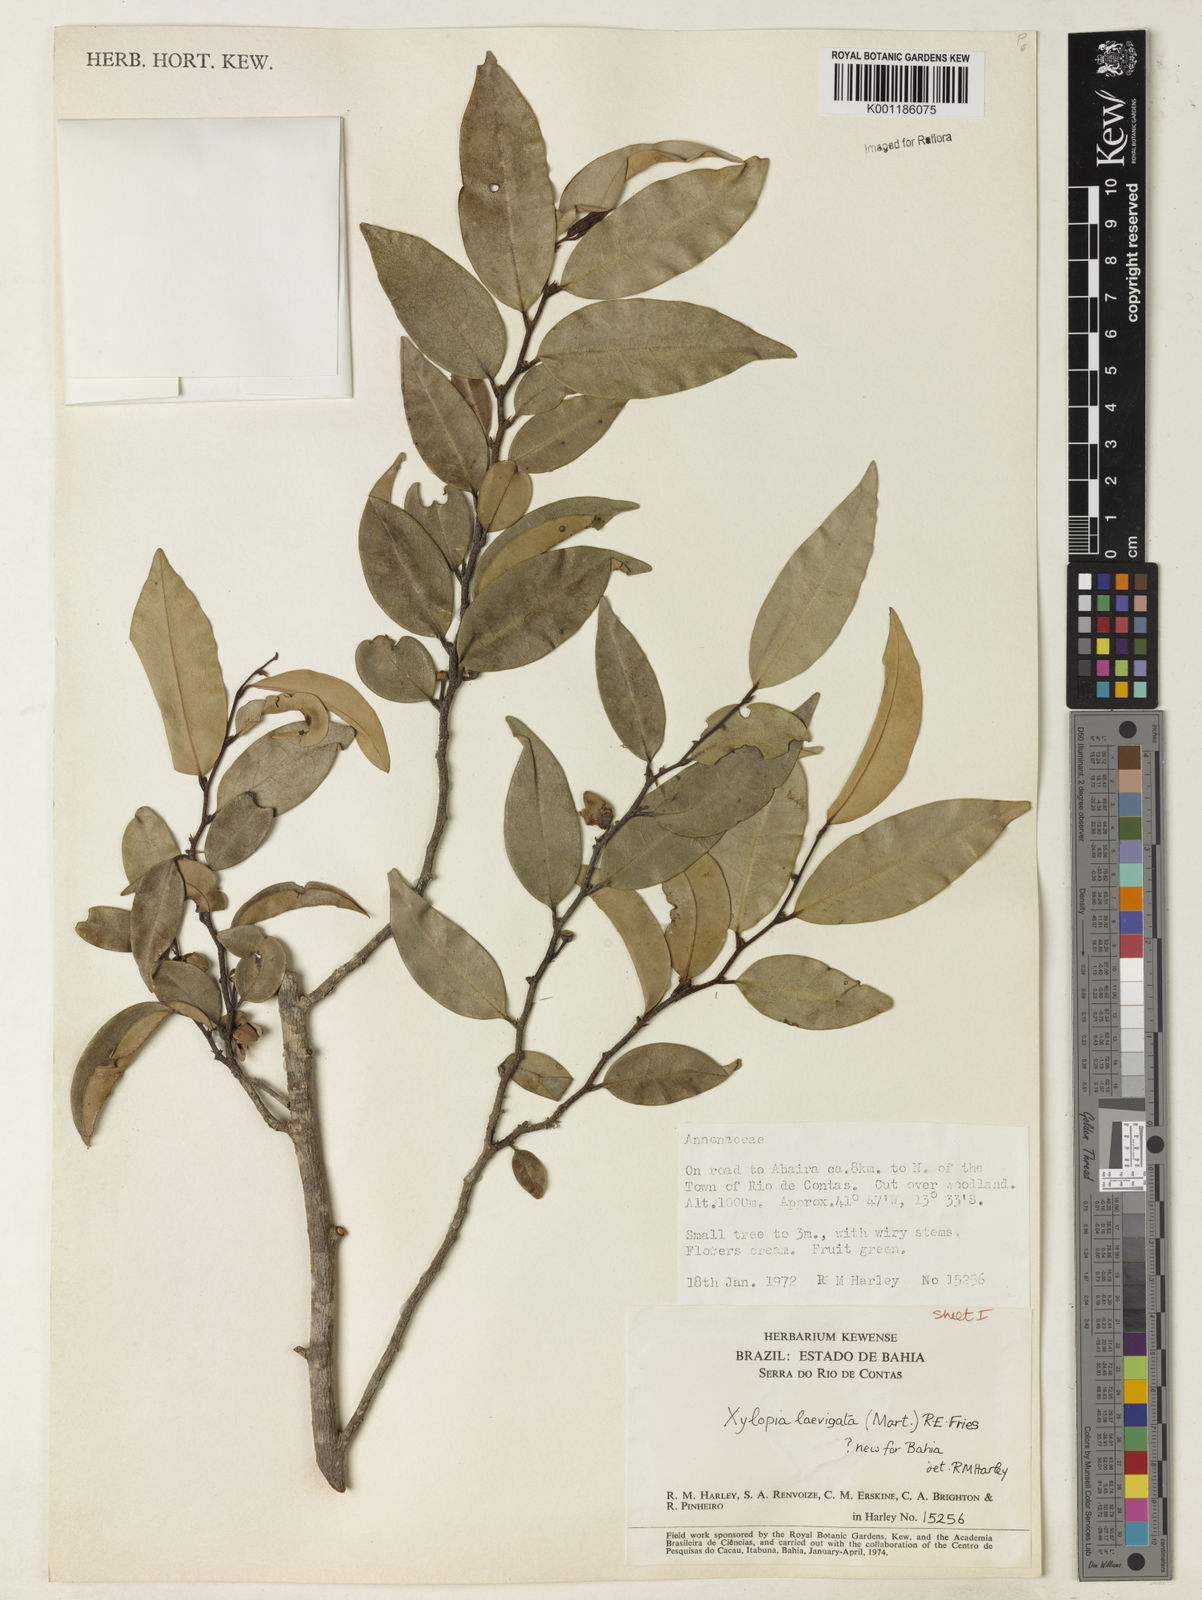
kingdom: Plantae
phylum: Tracheophyta
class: Magnoliopsida
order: Magnoliales
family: Annonaceae
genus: Xylopia
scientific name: Xylopia laevigata
